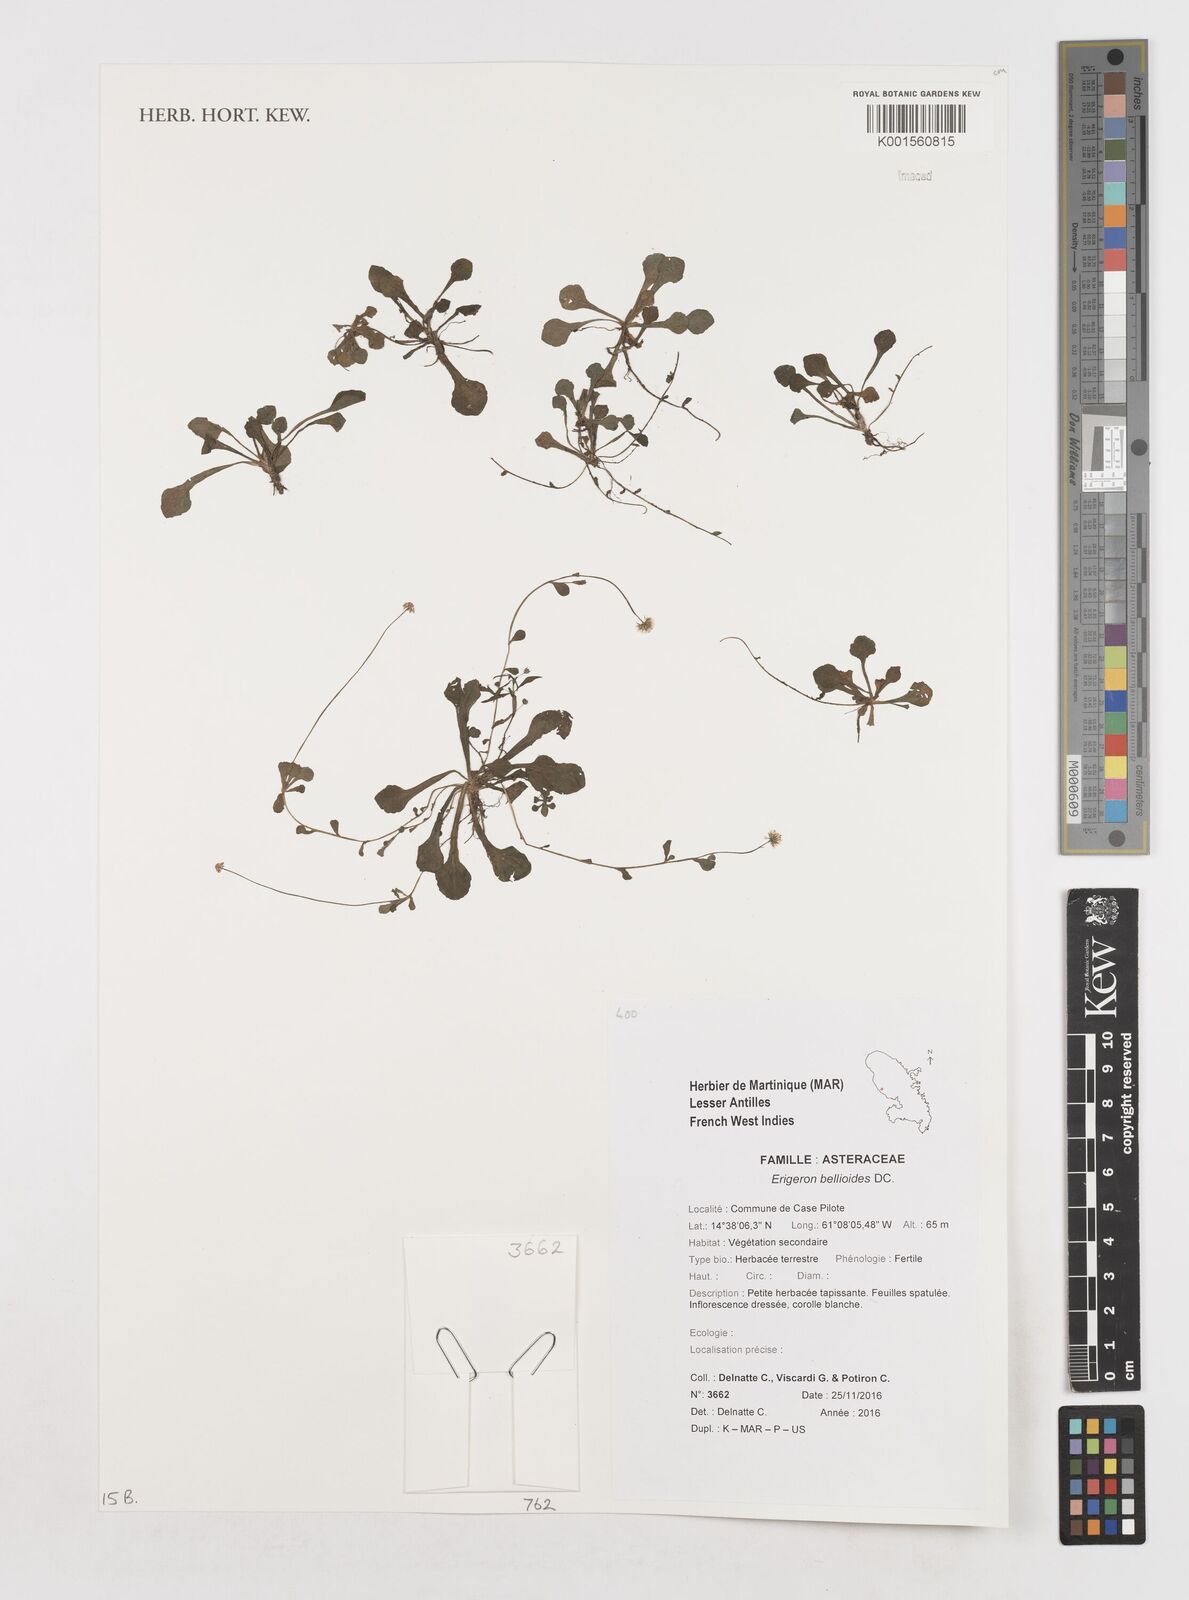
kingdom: Plantae
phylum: Tracheophyta
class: Magnoliopsida
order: Asterales
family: Asteraceae
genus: Erigeron
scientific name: Erigeron bellioides
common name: Bellorita
